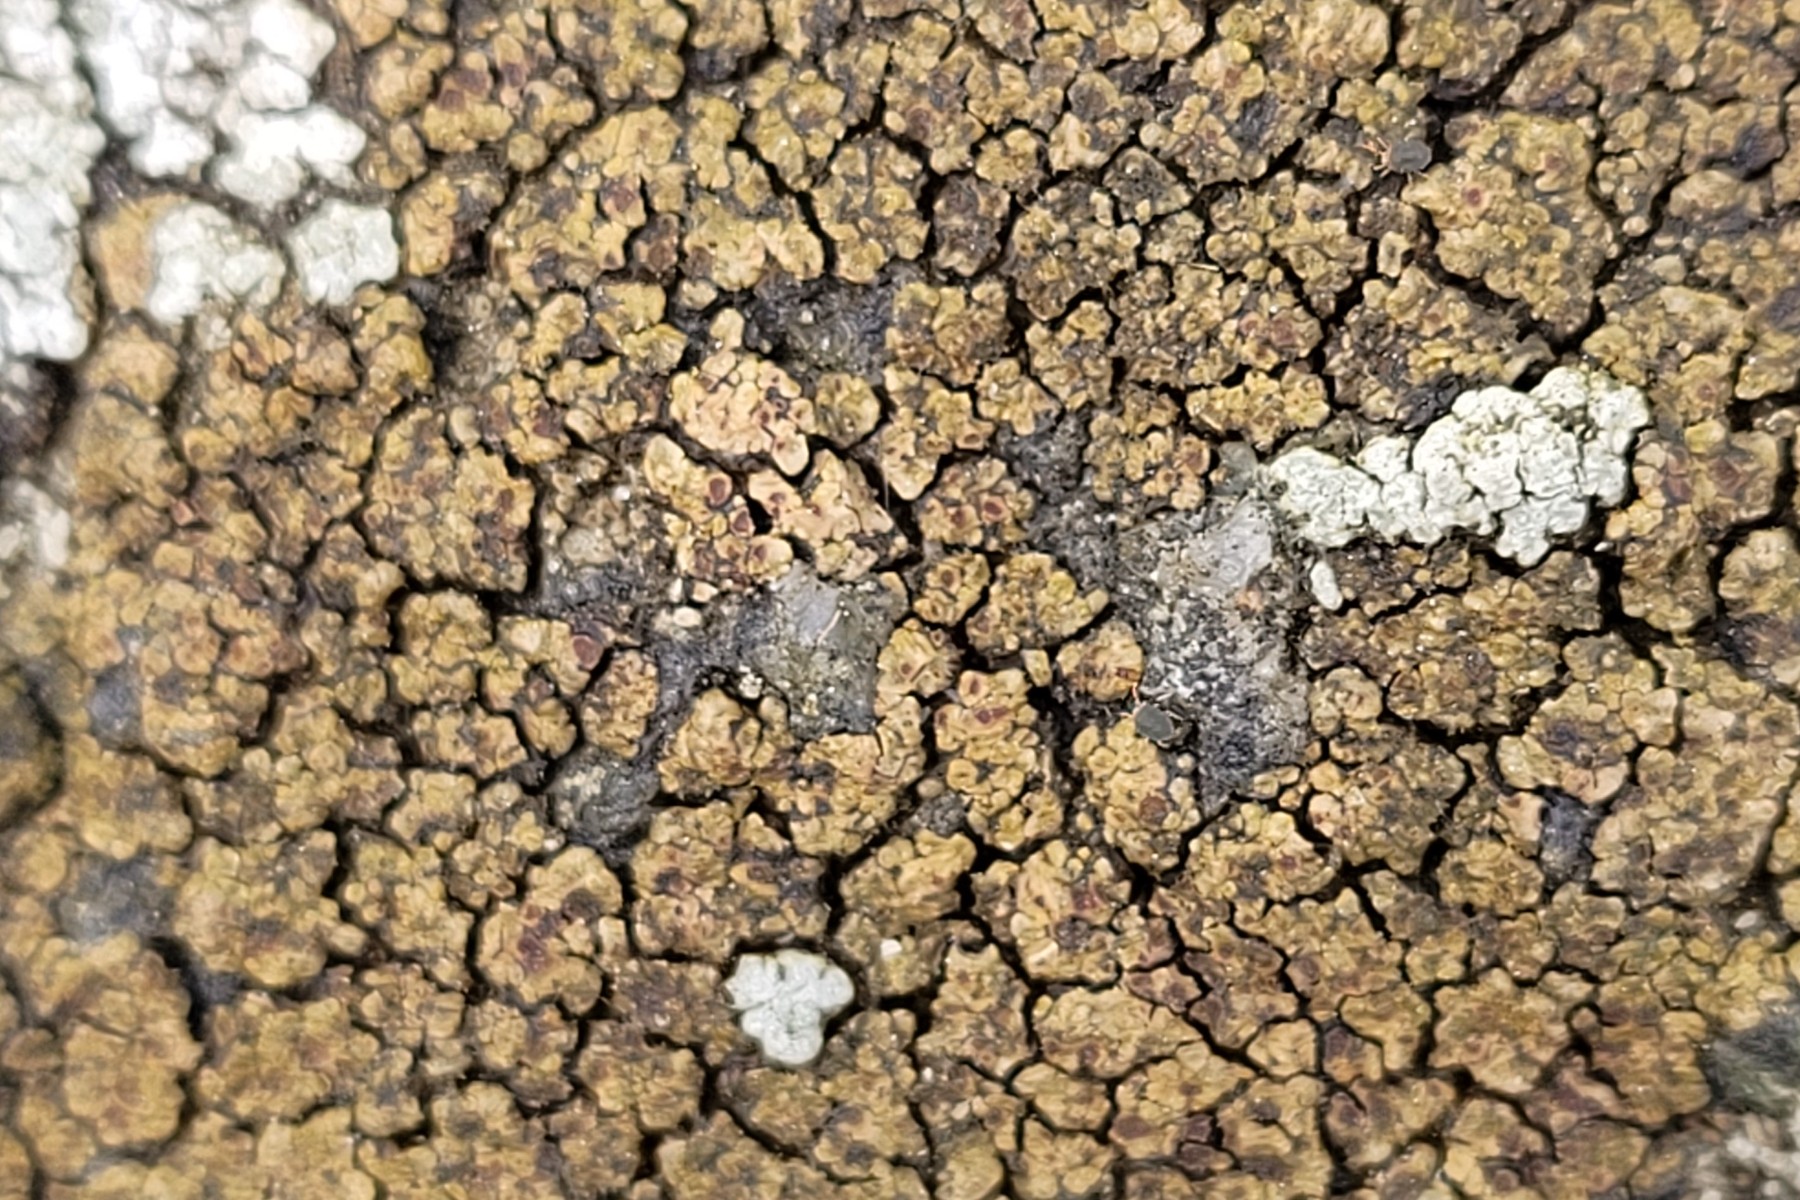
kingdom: Fungi
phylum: Ascomycota
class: Lecanoromycetes
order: Acarosporales
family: Acarosporaceae
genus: Acarospora
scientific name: Acarospora fuscata
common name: brun småsporelav
